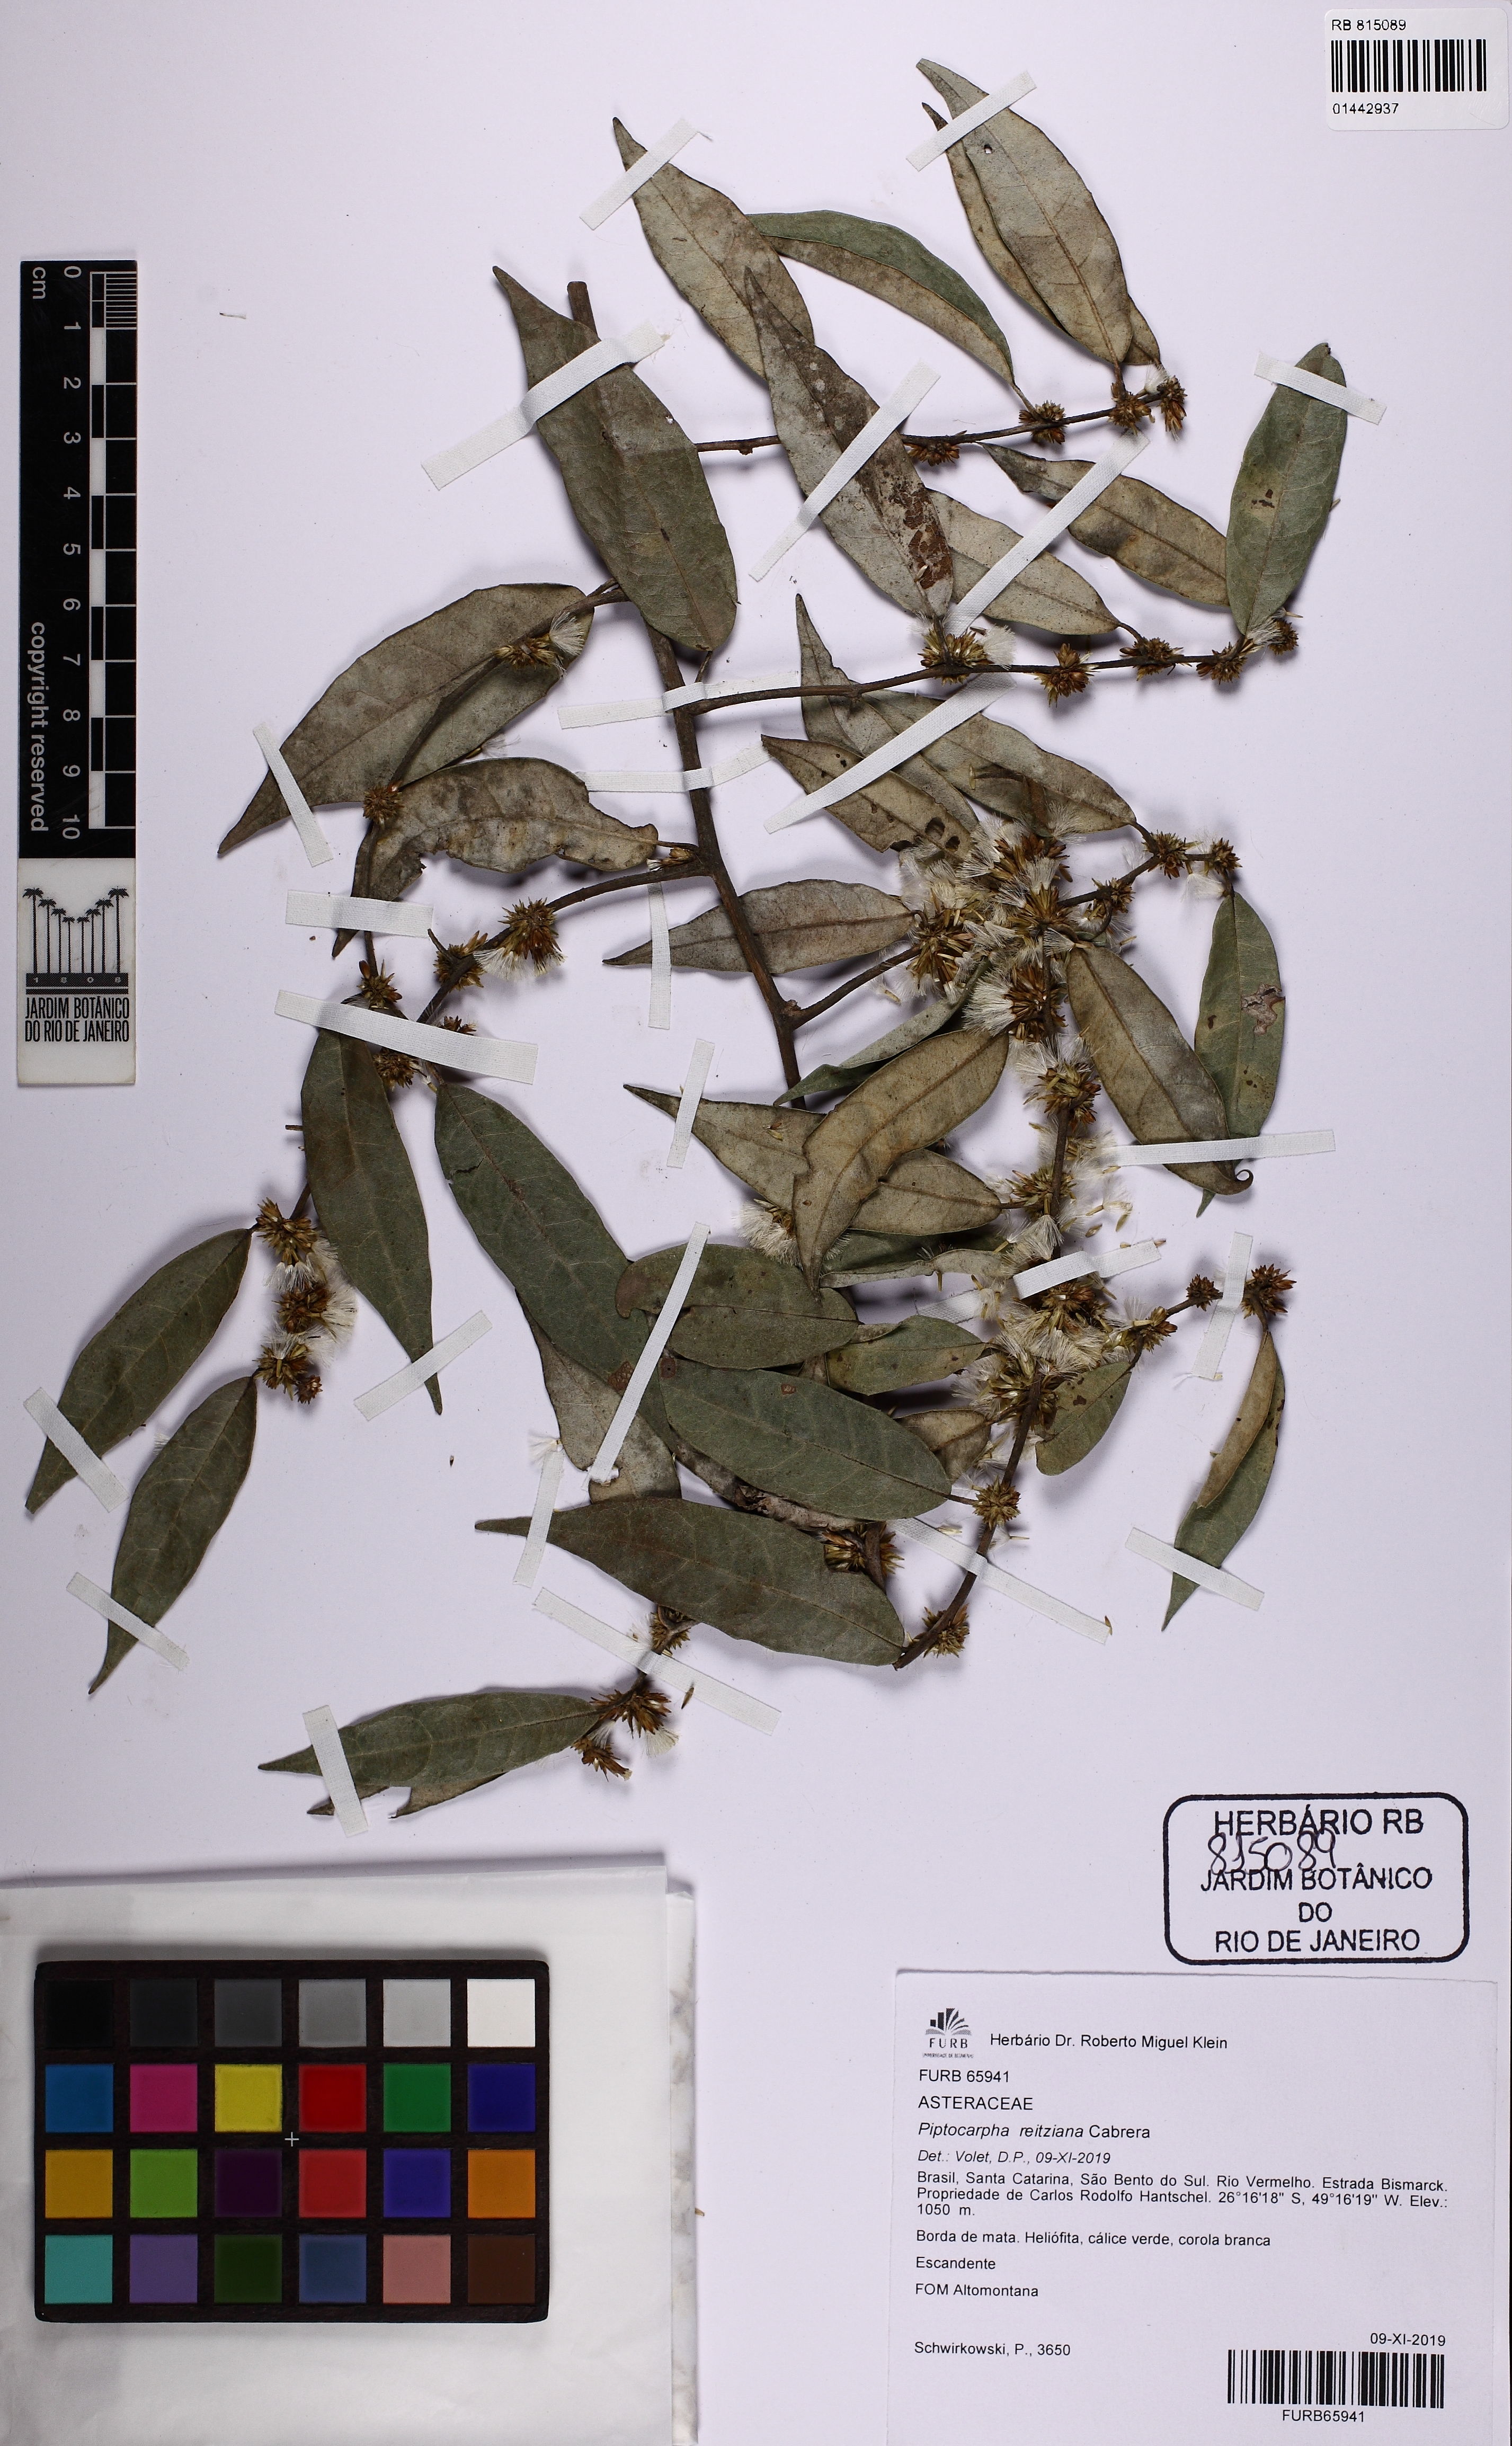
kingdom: Plantae
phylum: Tracheophyta
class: Magnoliopsida
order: Asterales
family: Asteraceae
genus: Piptocarpha
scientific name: Piptocarpha oblonga
